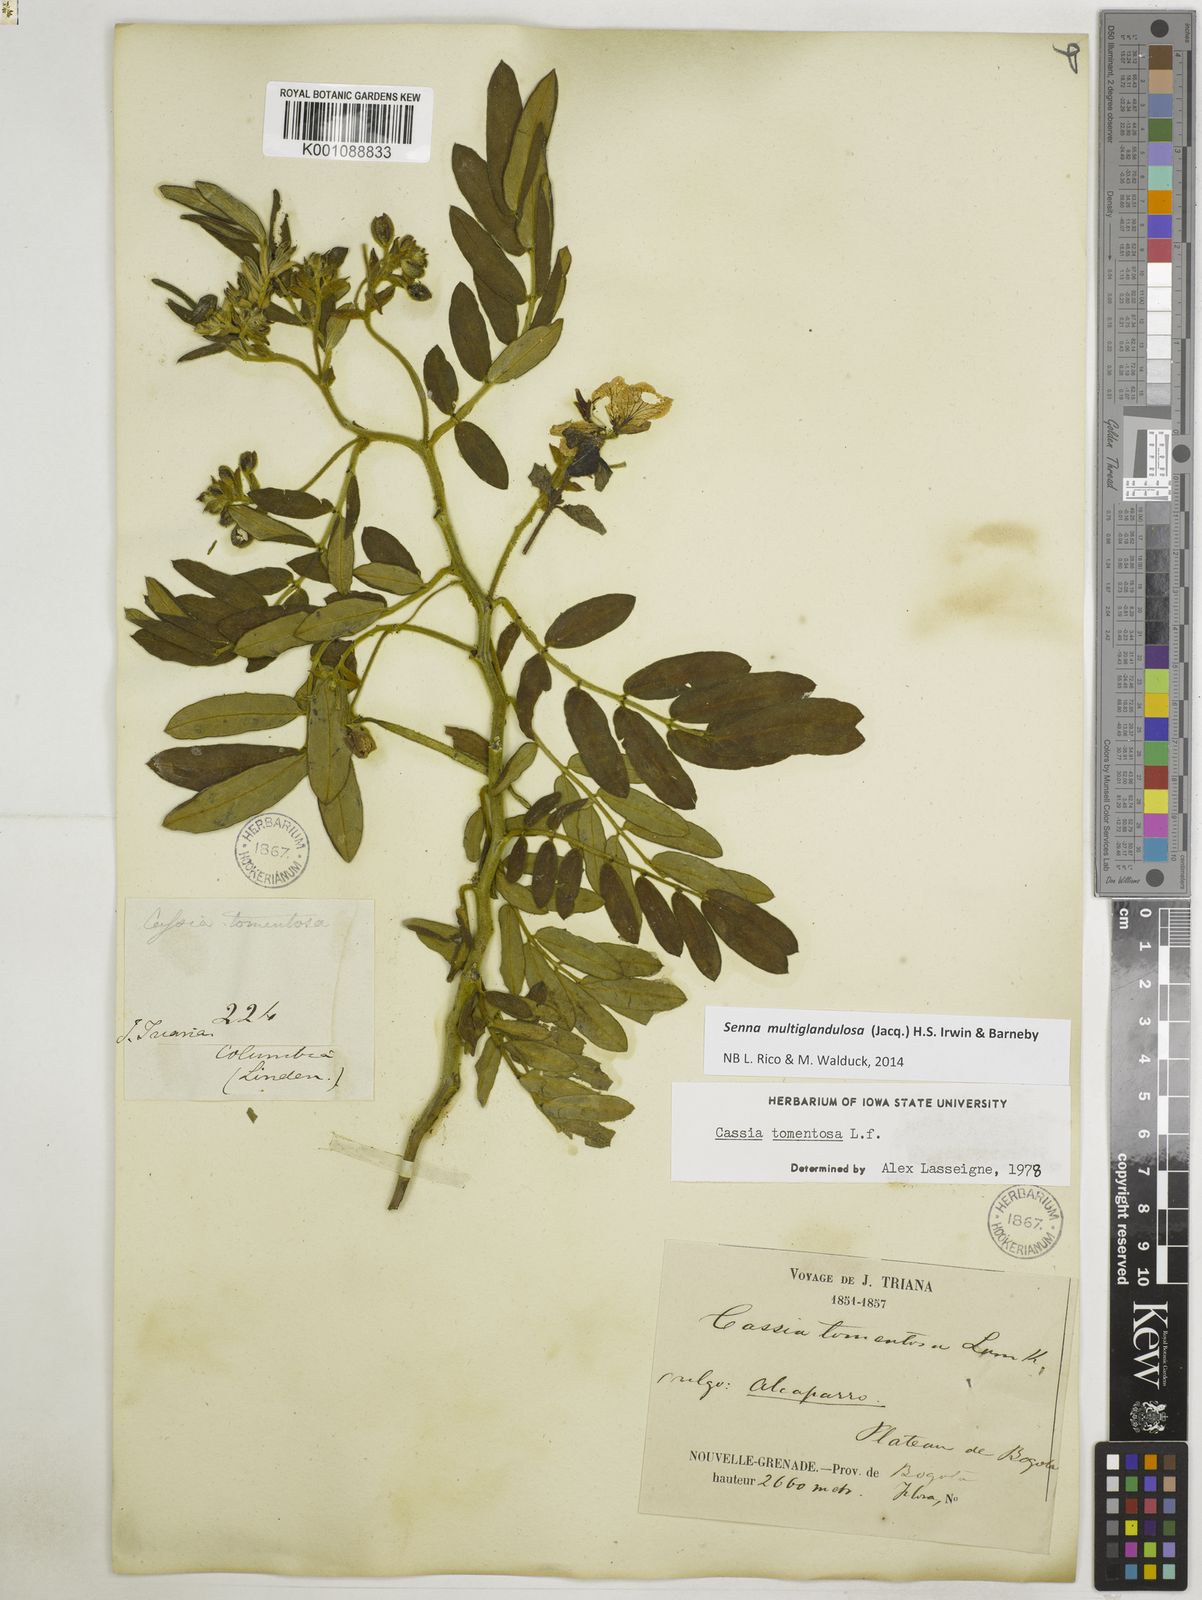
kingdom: Plantae
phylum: Tracheophyta
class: Magnoliopsida
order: Fabales
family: Fabaceae
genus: Senna
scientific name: Senna multiglandulosa
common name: Glandular senna
